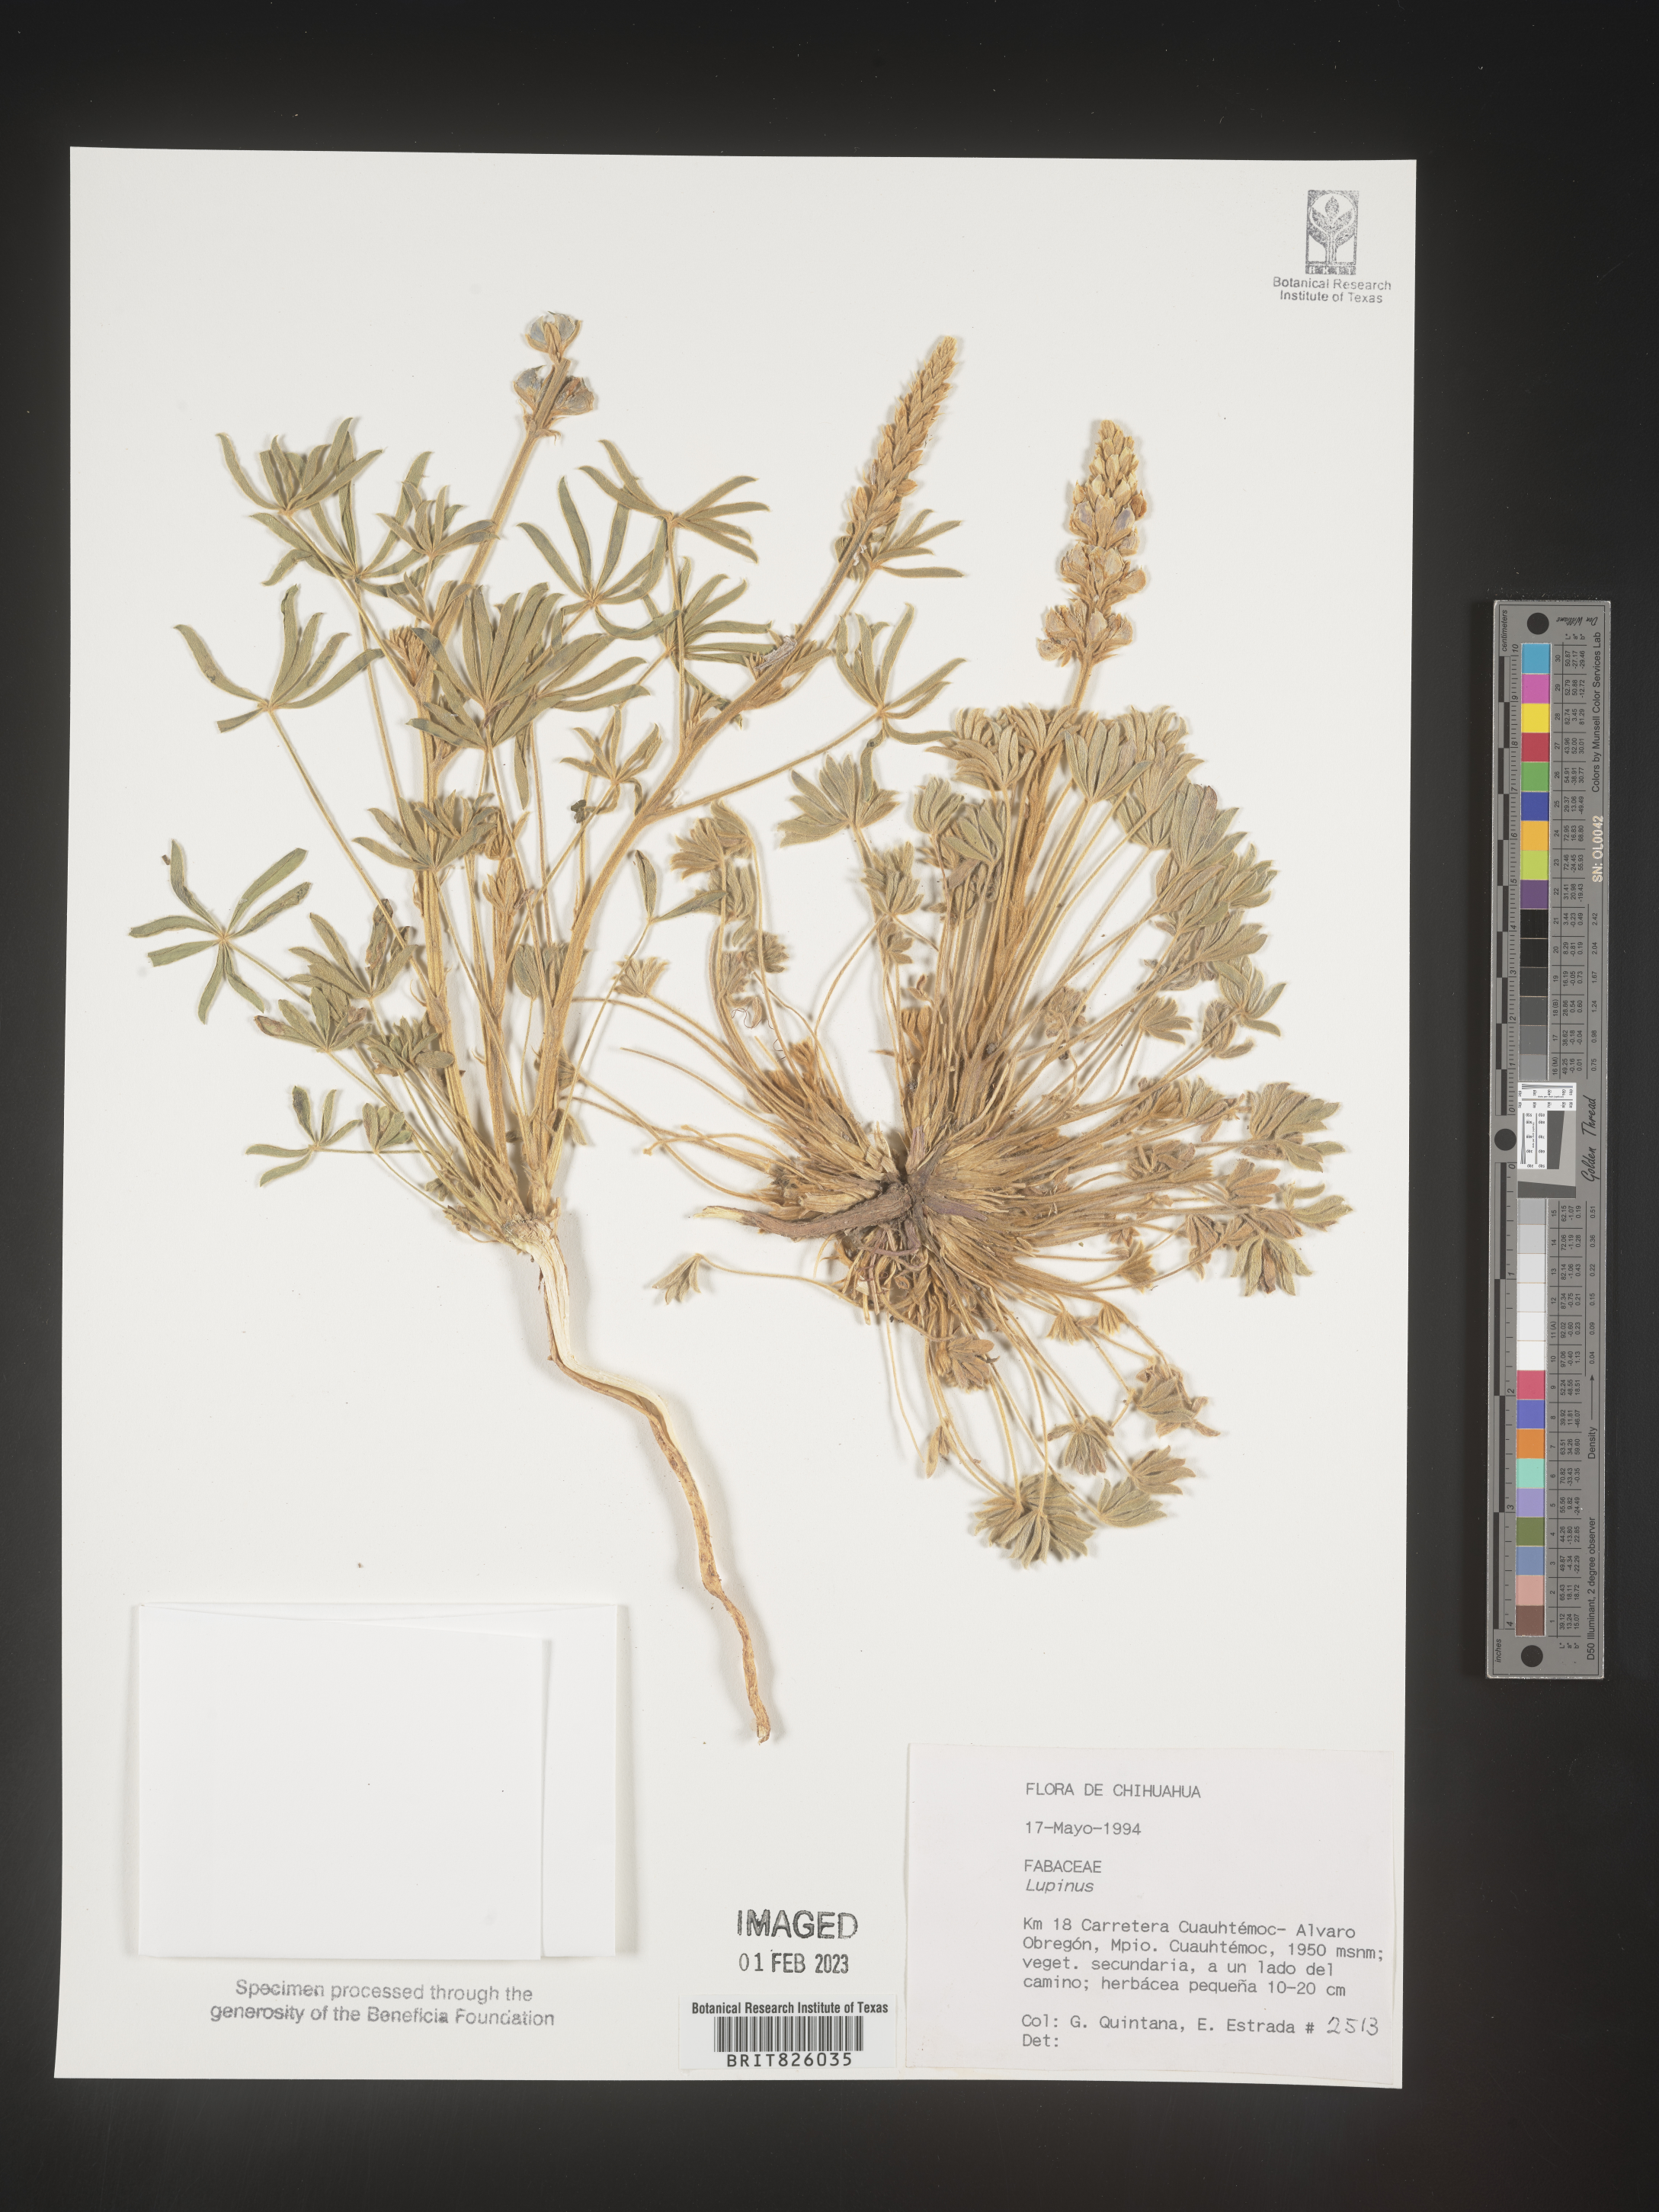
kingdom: Plantae
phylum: Tracheophyta
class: Magnoliopsida
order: Fabales
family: Fabaceae
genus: Lupinus
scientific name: Lupinus
